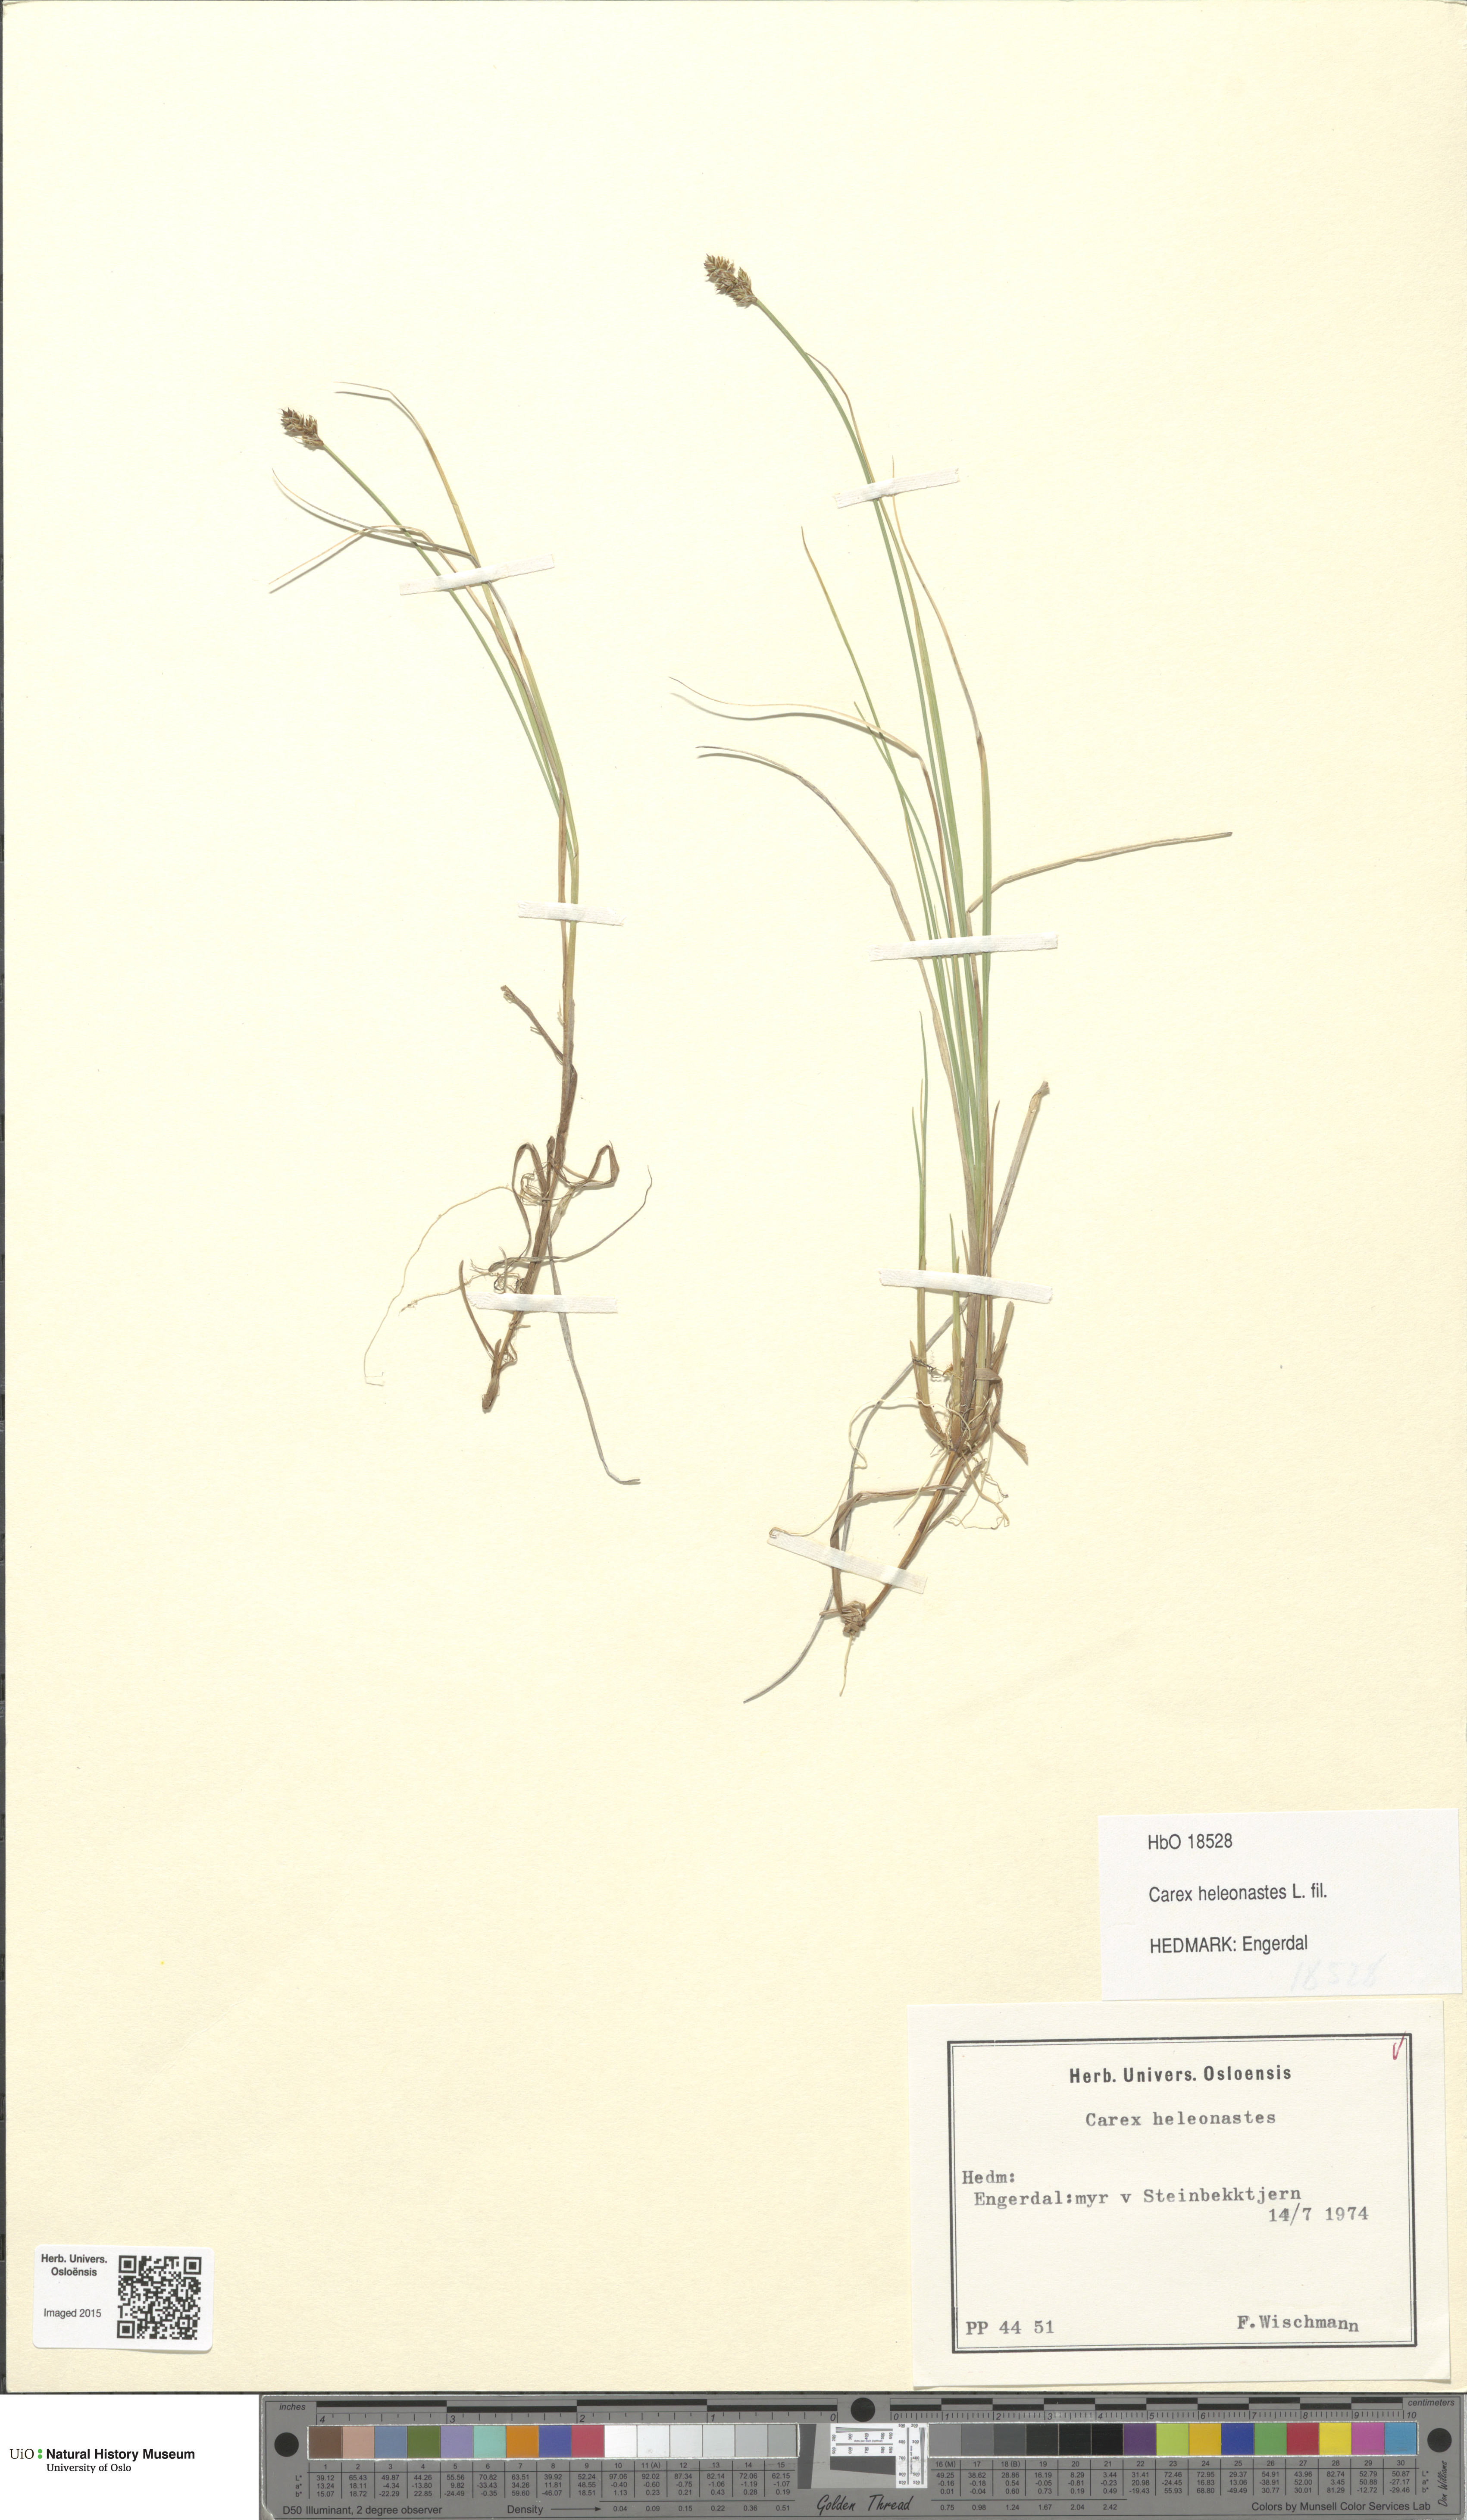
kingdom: Plantae
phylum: Tracheophyta
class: Liliopsida
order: Poales
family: Cyperaceae
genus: Carex
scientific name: Carex heleonastes
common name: Hudson bay sedge
